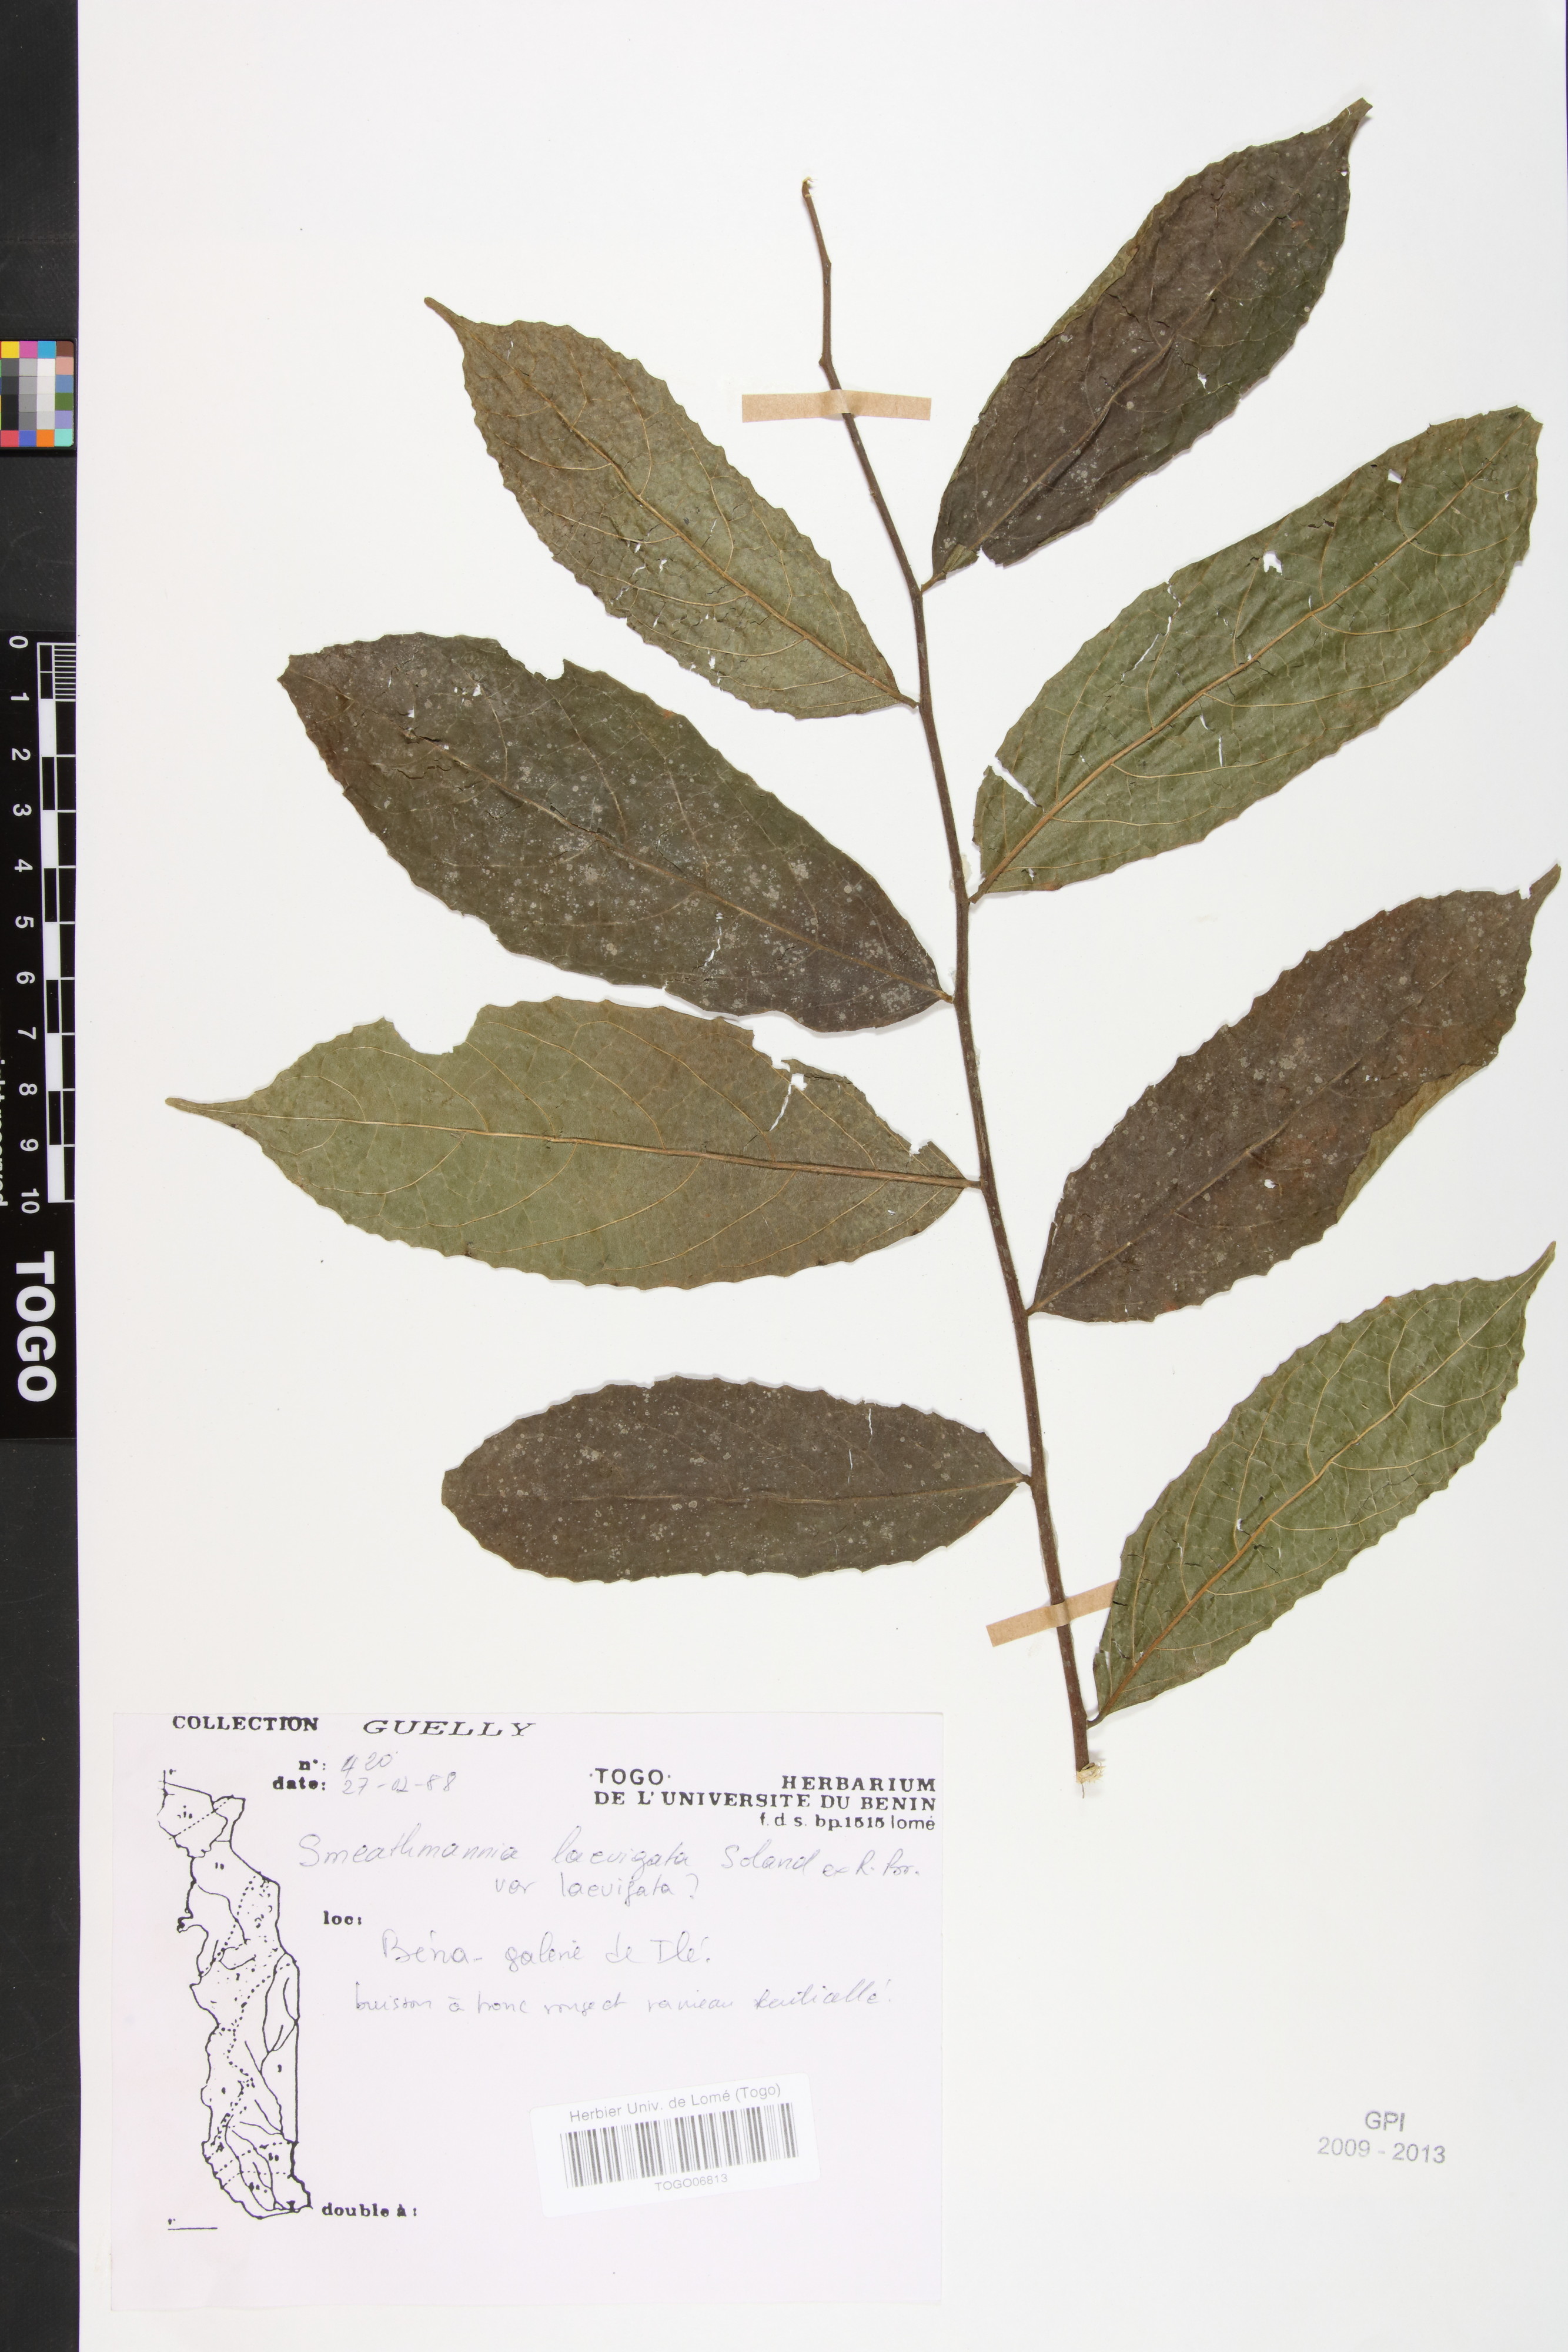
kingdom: Plantae
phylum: Tracheophyta
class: Magnoliopsida
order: Malpighiales
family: Passifloraceae
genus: Smeathmannia
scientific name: Smeathmannia pubescens
